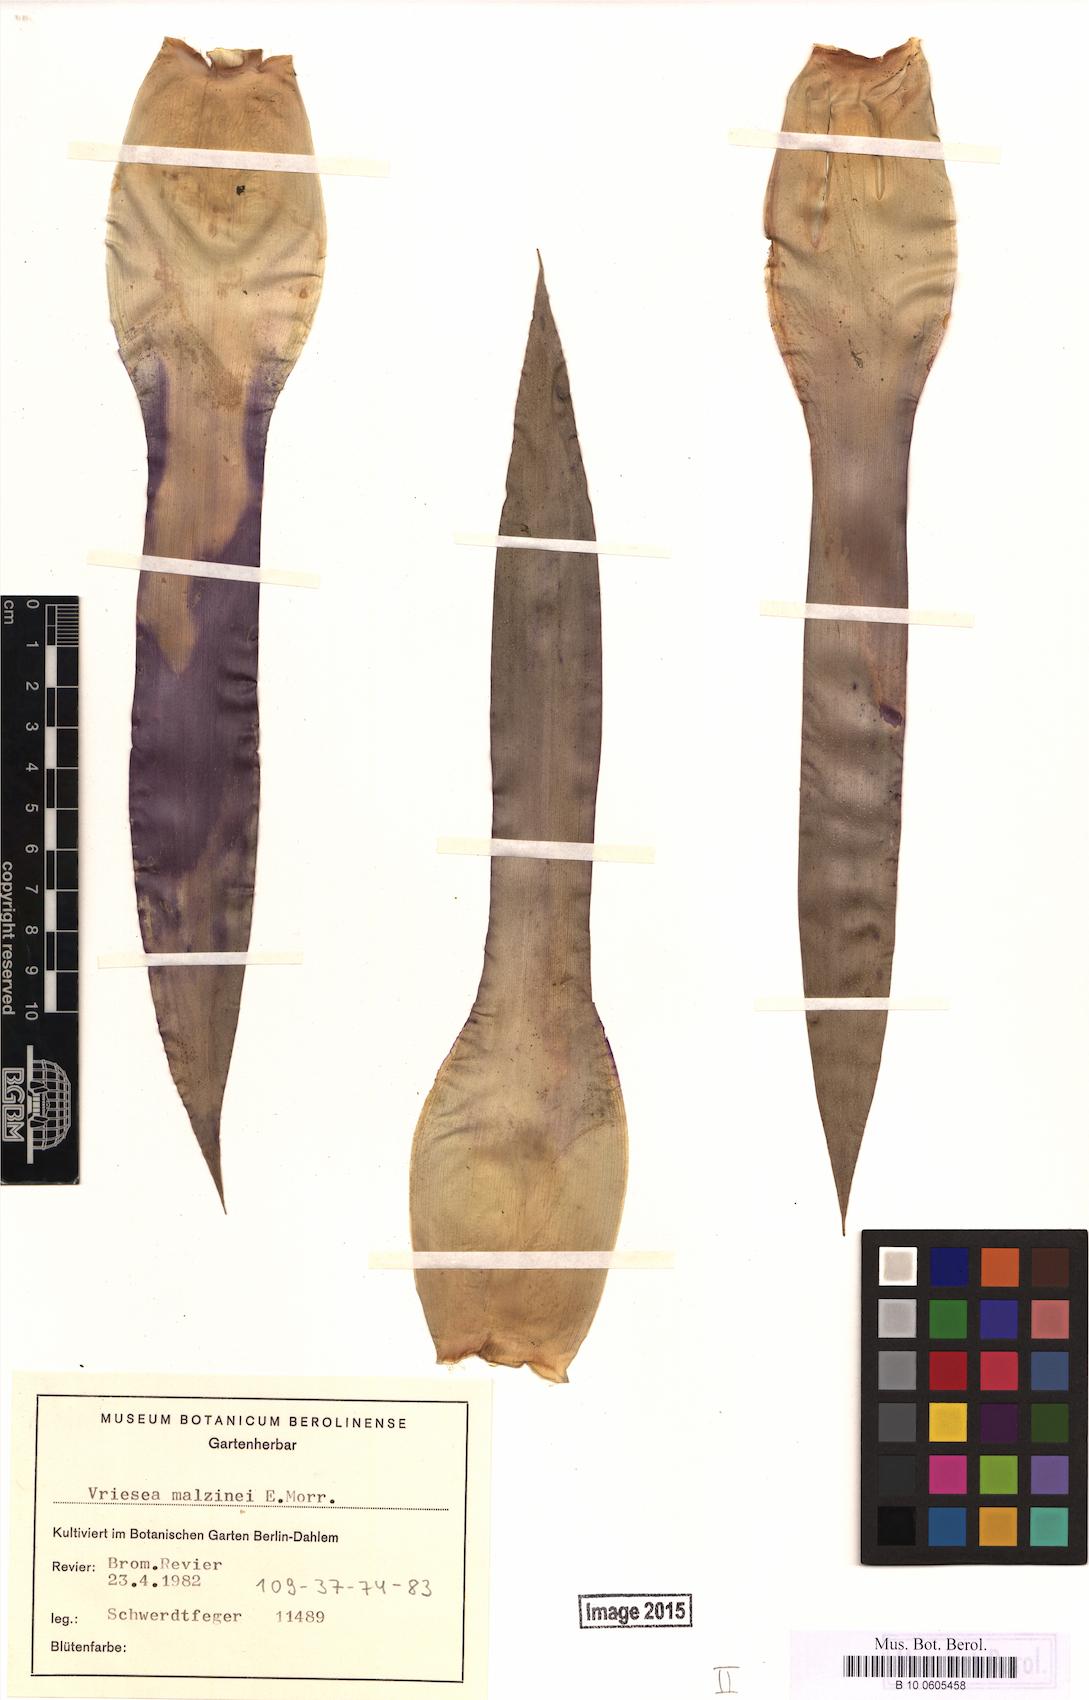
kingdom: Plantae
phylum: Tracheophyta
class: Liliopsida
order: Poales
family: Bromeliaceae
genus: Tillandsia
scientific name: Tillandsia malzinei
